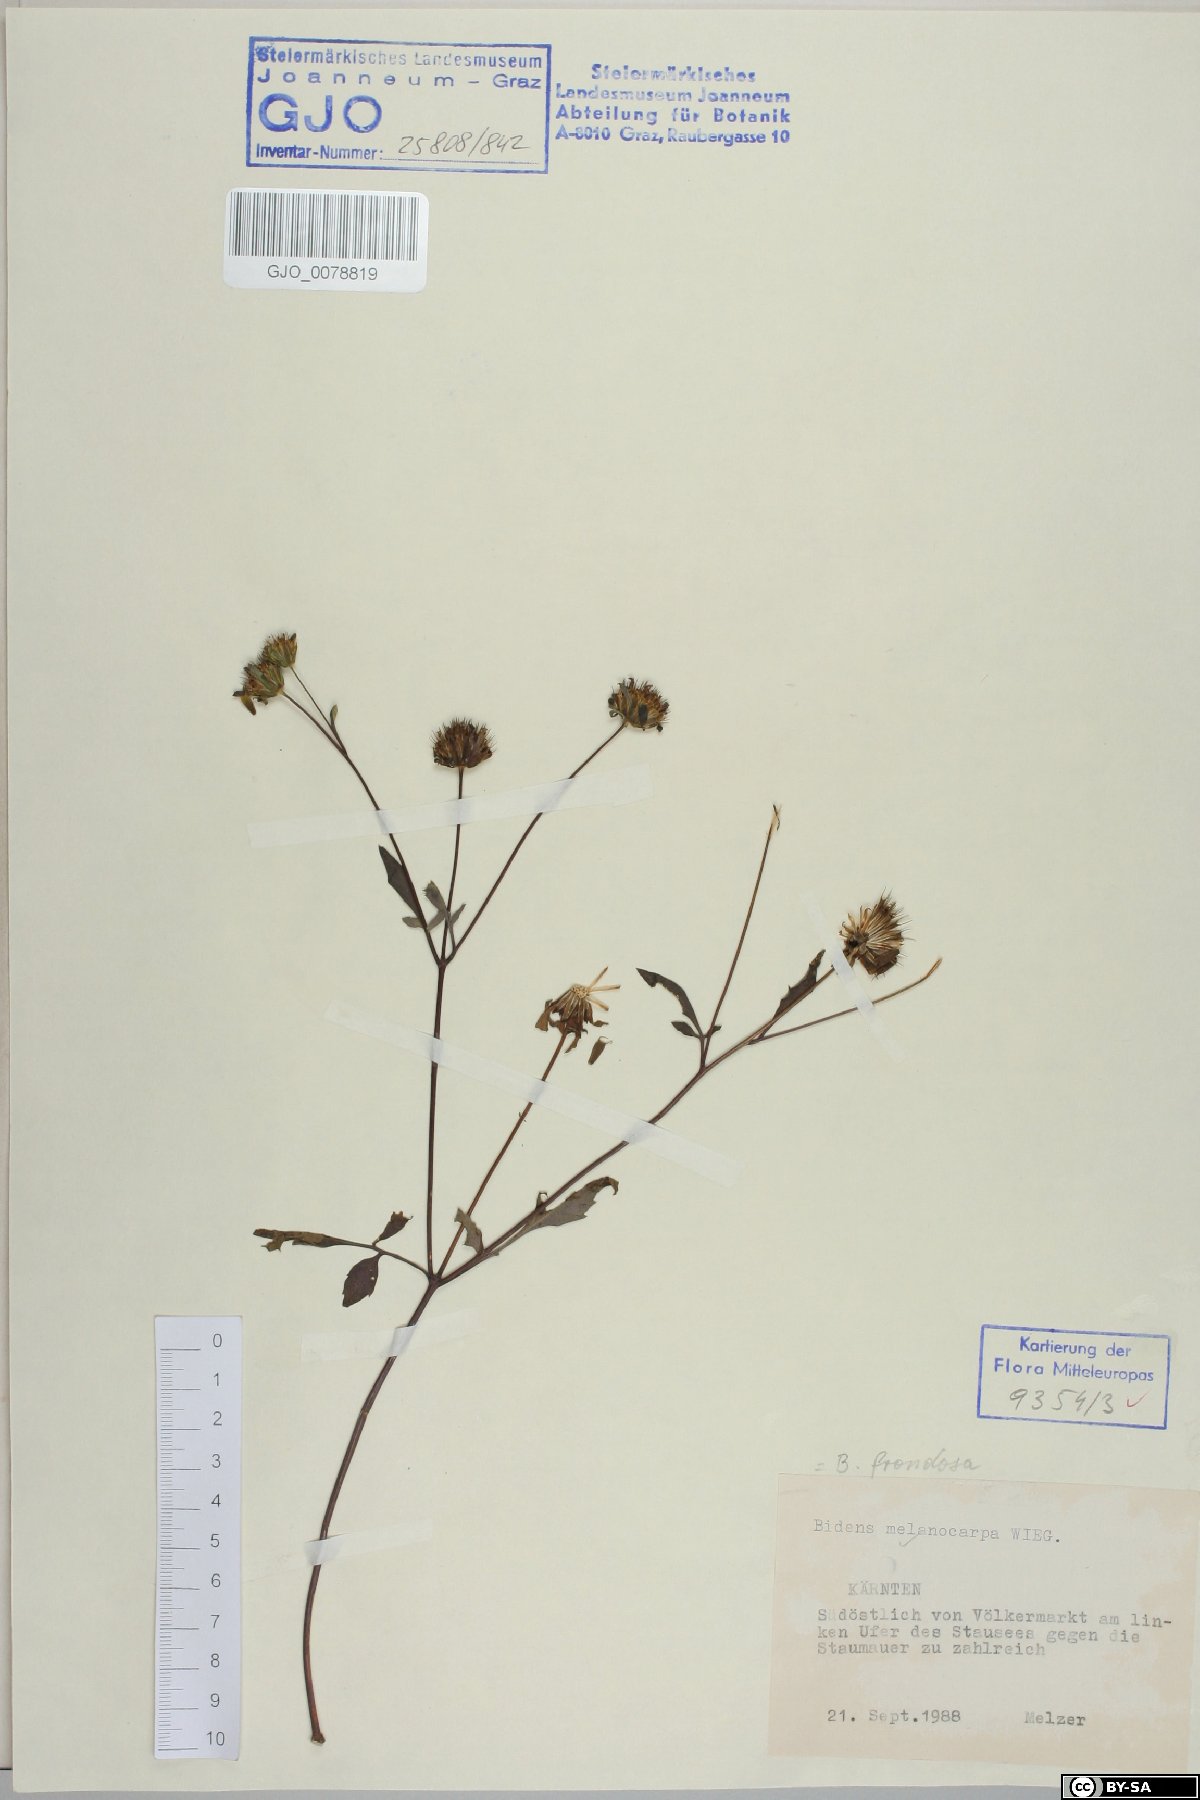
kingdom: Plantae
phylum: Tracheophyta
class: Magnoliopsida
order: Asterales
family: Asteraceae
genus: Bidens
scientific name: Bidens frondosa
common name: Beggarticks
